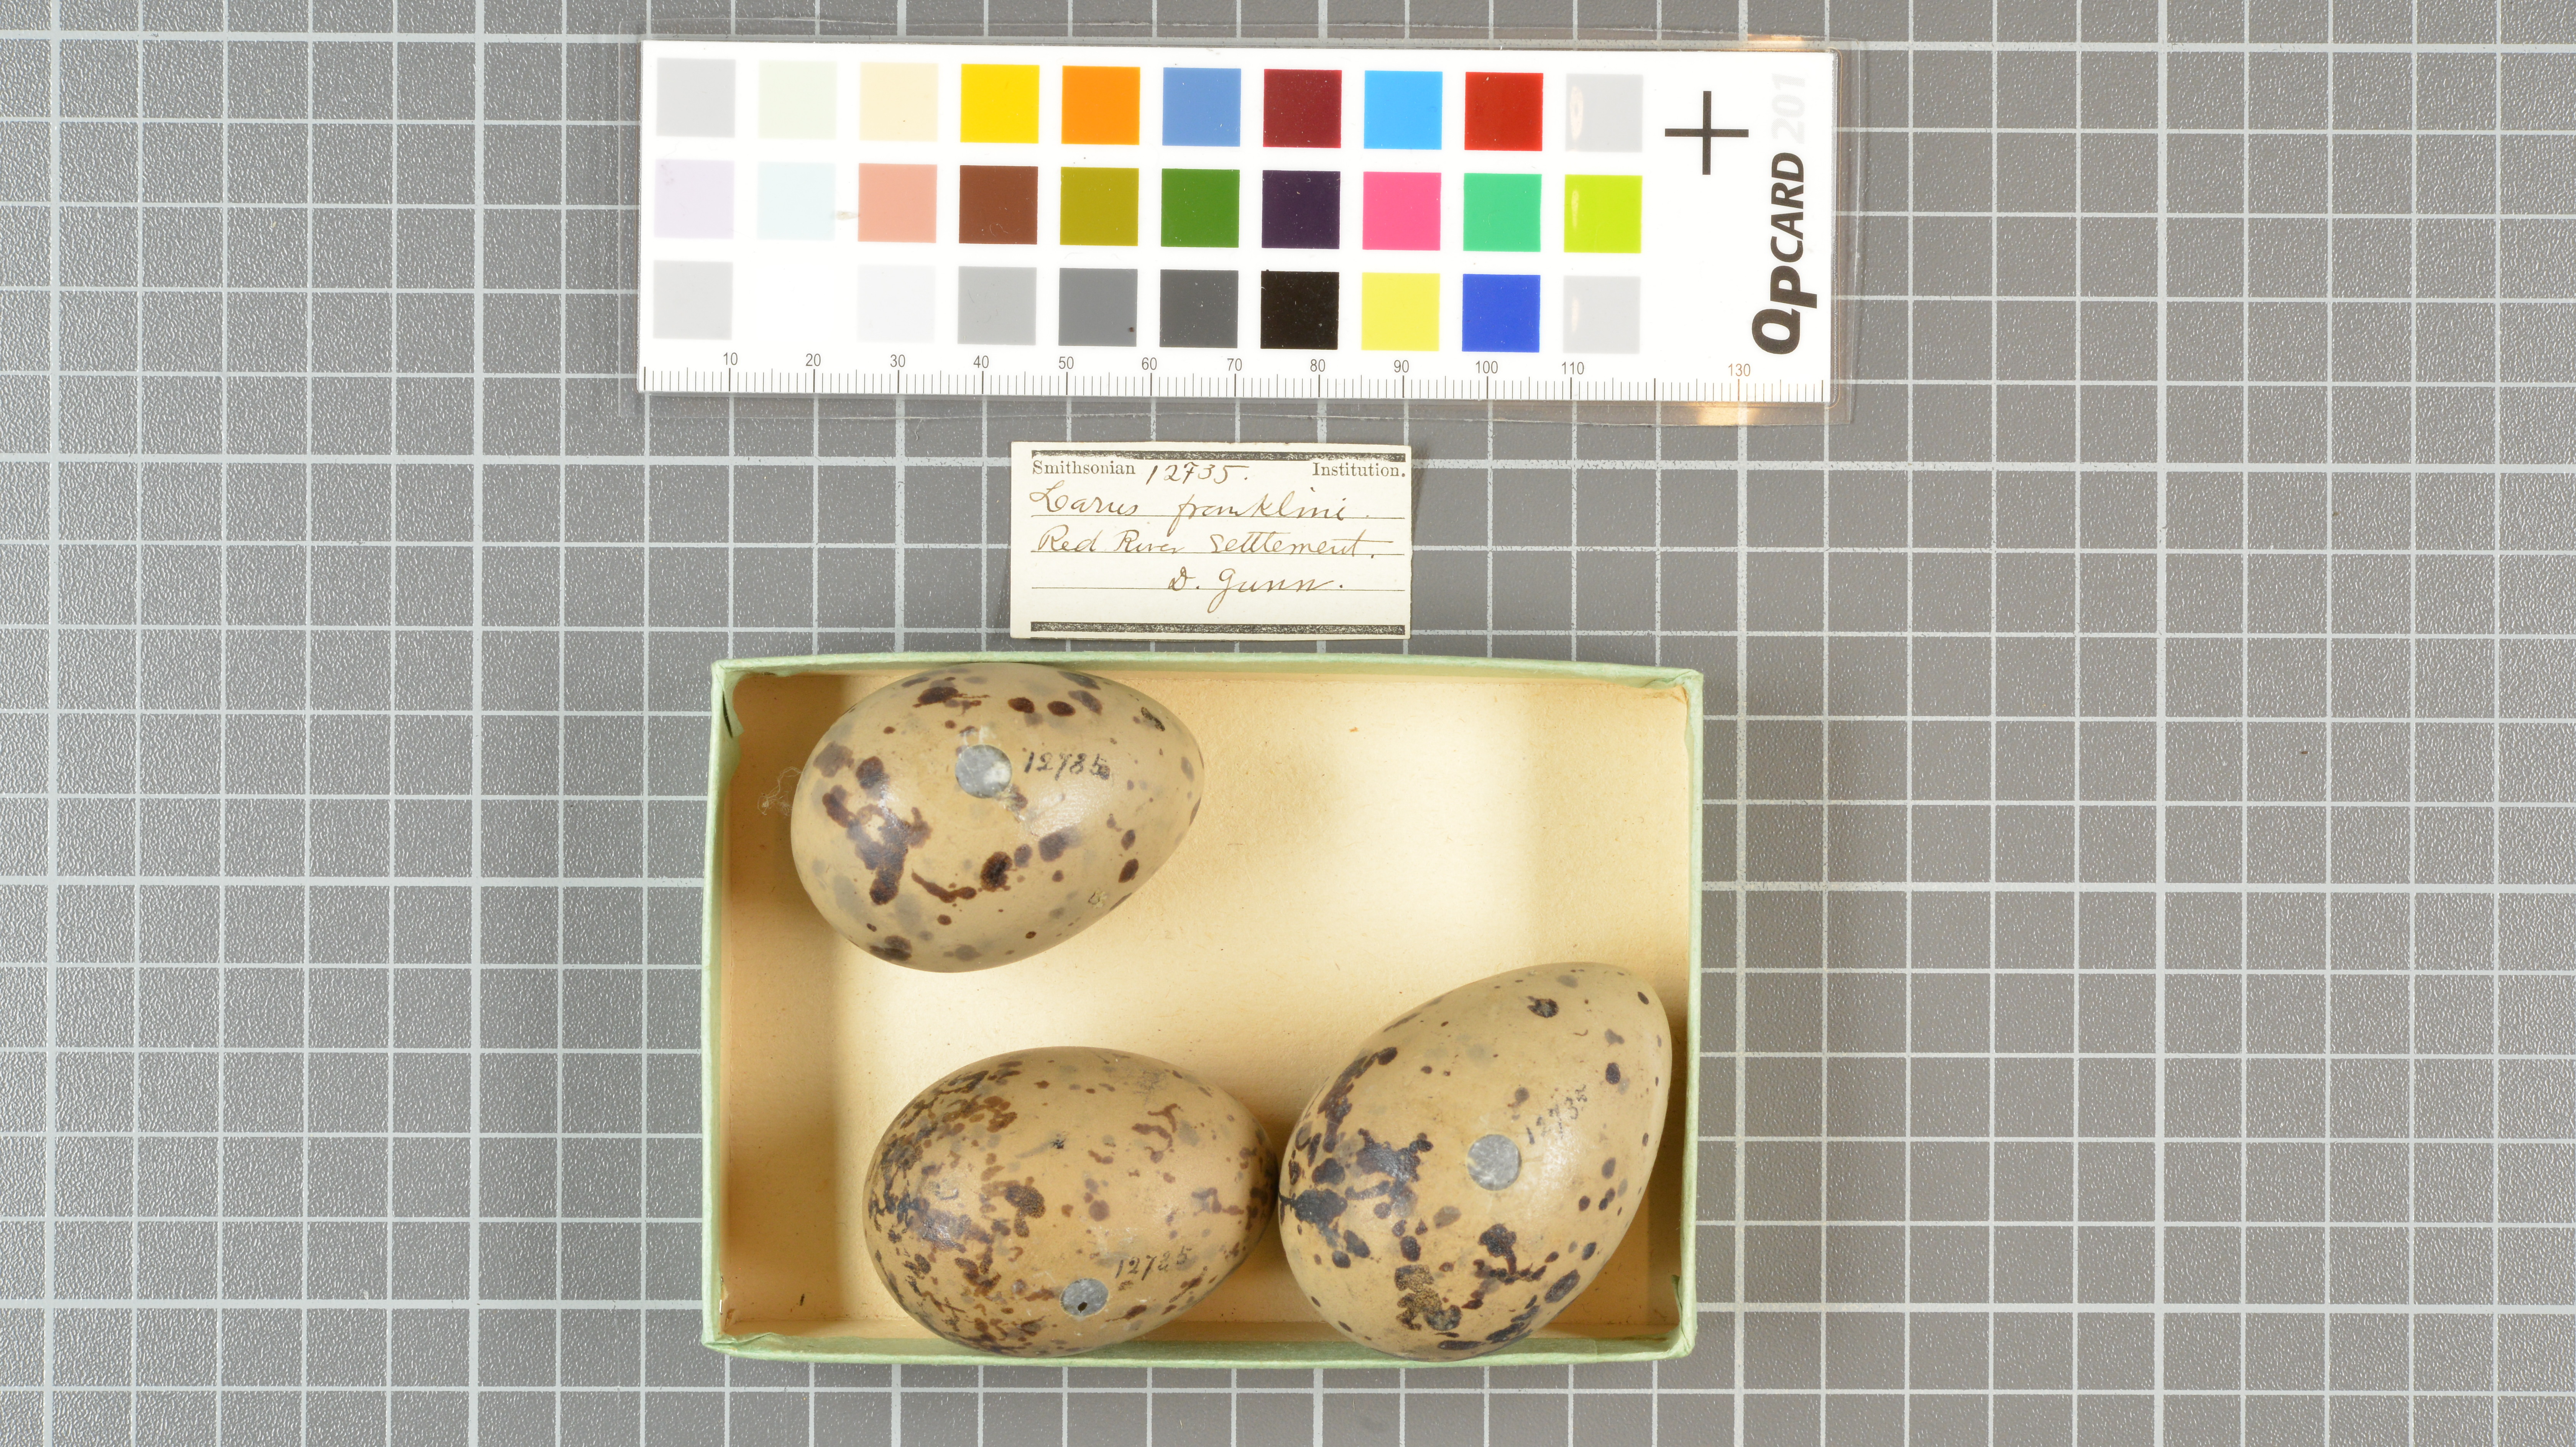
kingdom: Animalia
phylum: Chordata
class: Aves
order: Charadriiformes
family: Laridae
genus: Leucophaeus
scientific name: Leucophaeus pipixcan
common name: Franklin's gull
